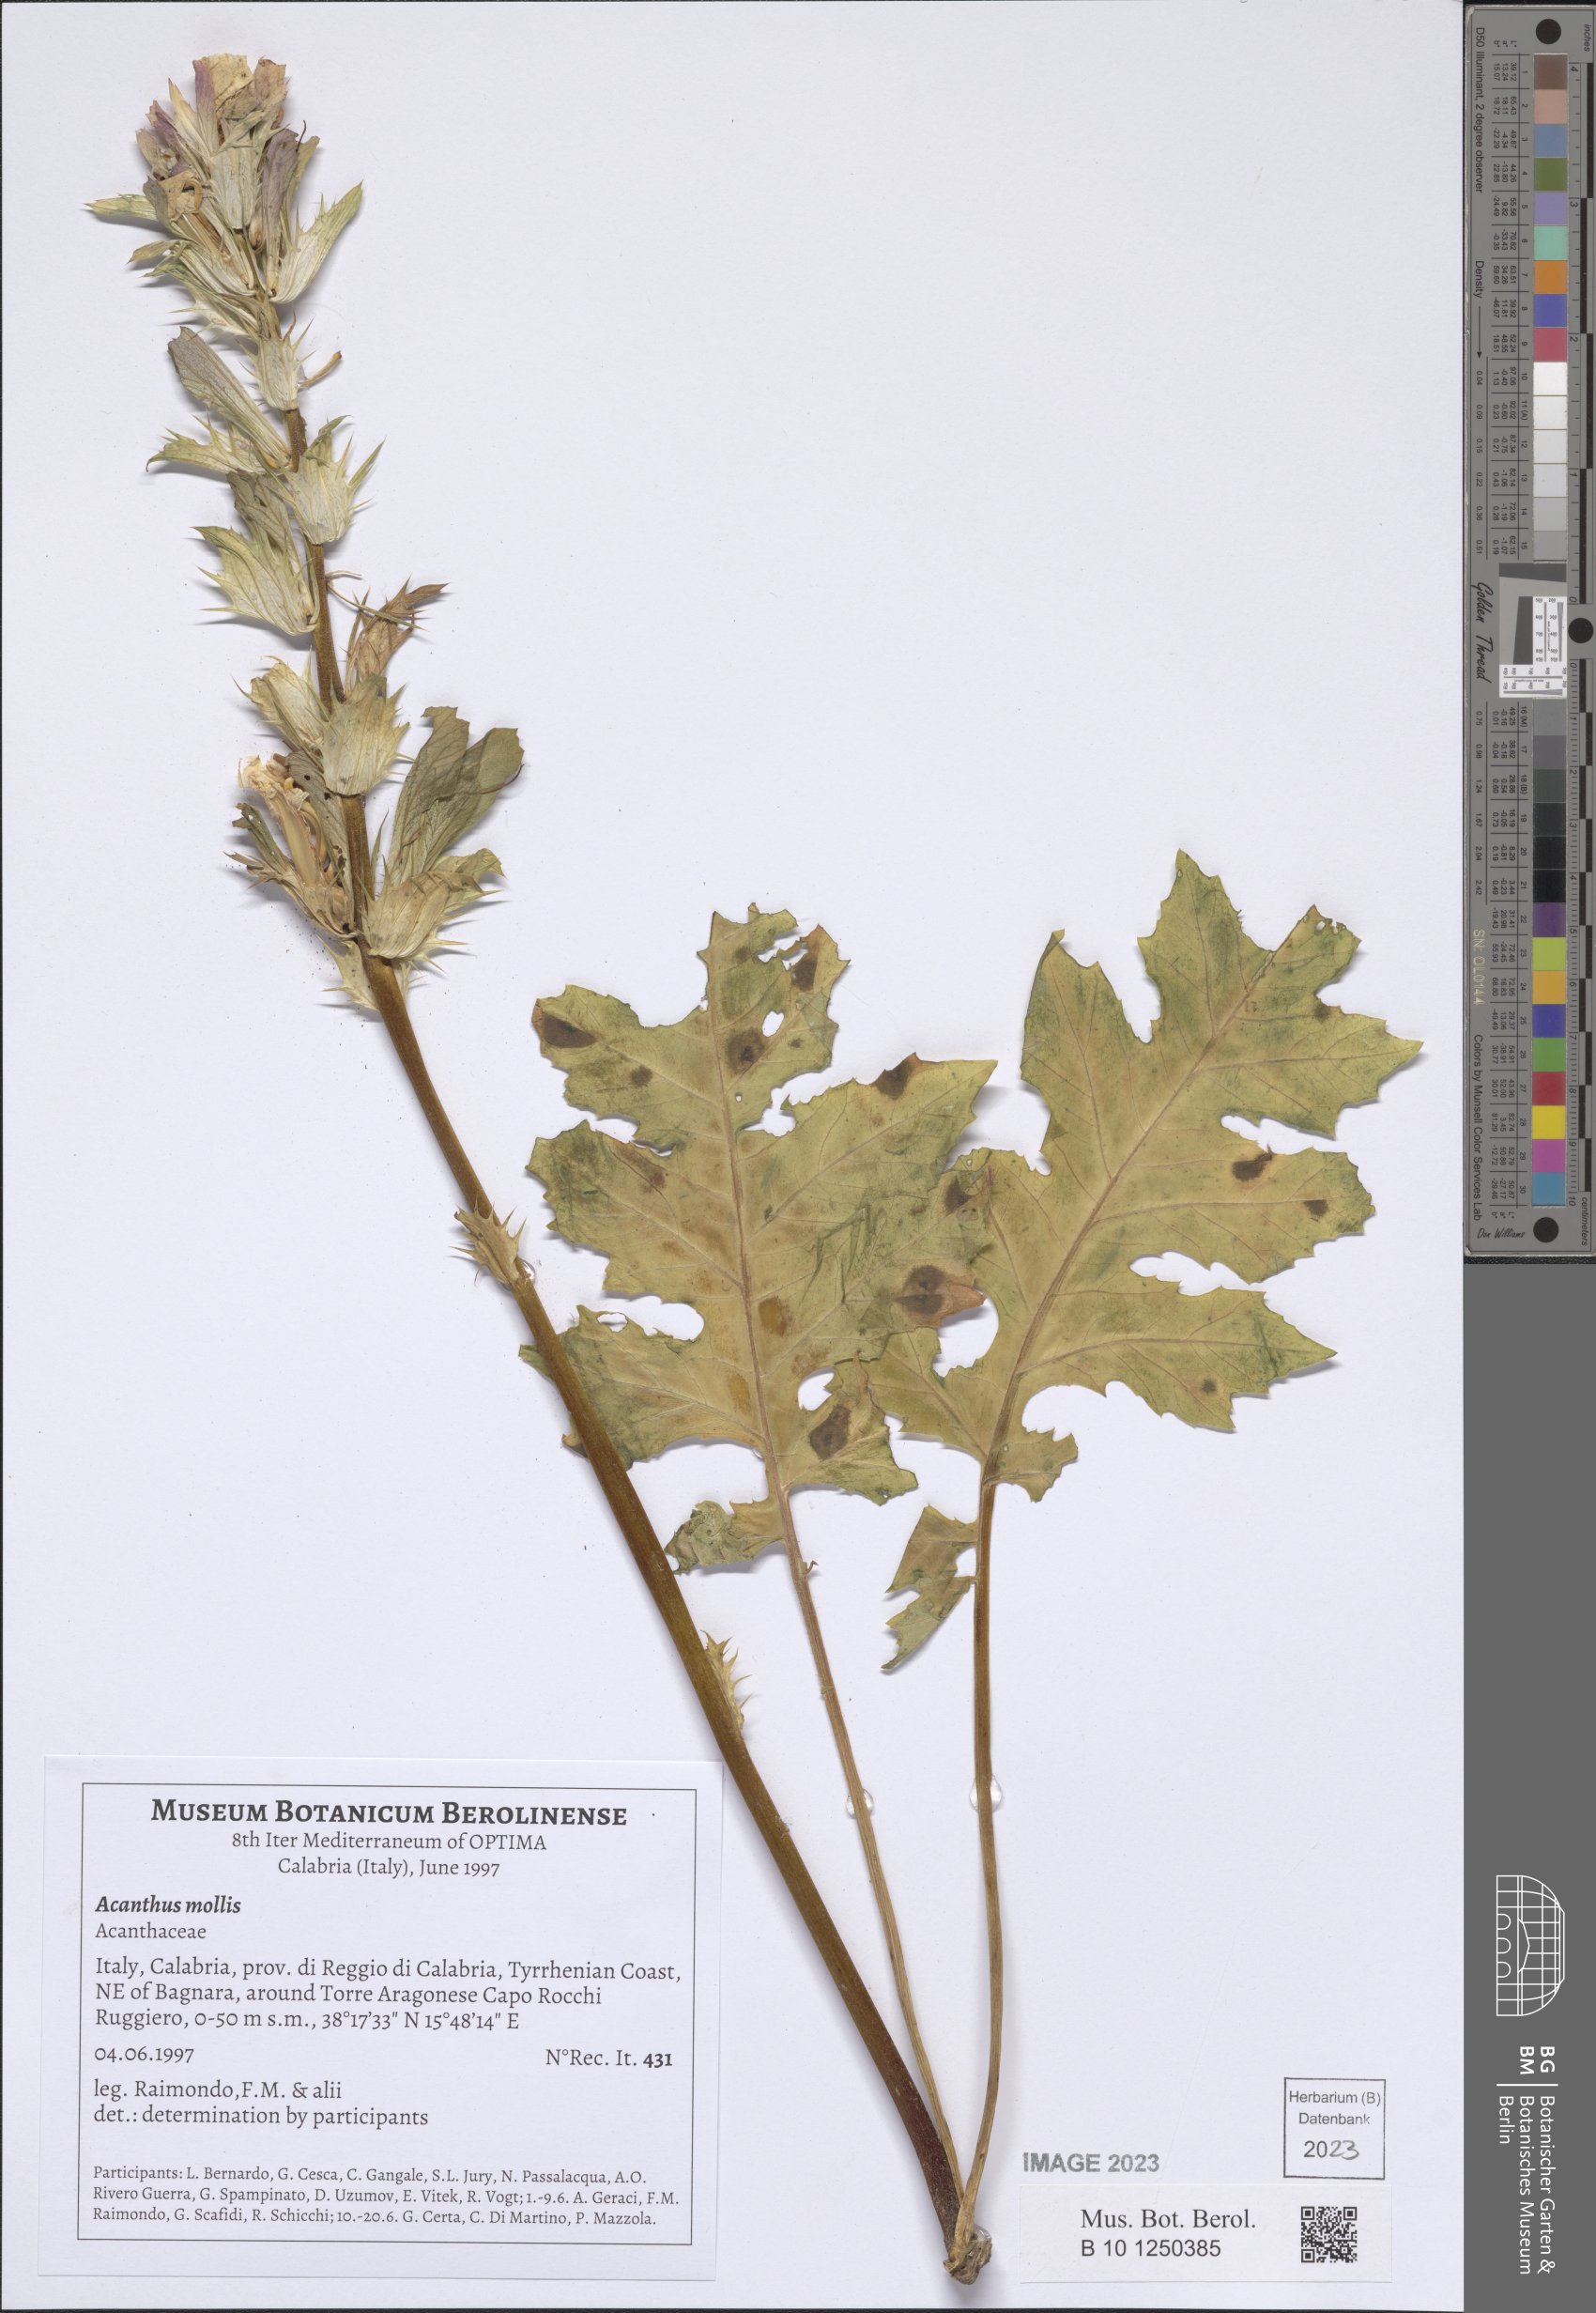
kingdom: Plantae
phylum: Tracheophyta
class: Magnoliopsida
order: Lamiales
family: Acanthaceae
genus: Acanthus
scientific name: Acanthus mollis
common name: Bear's-breech
